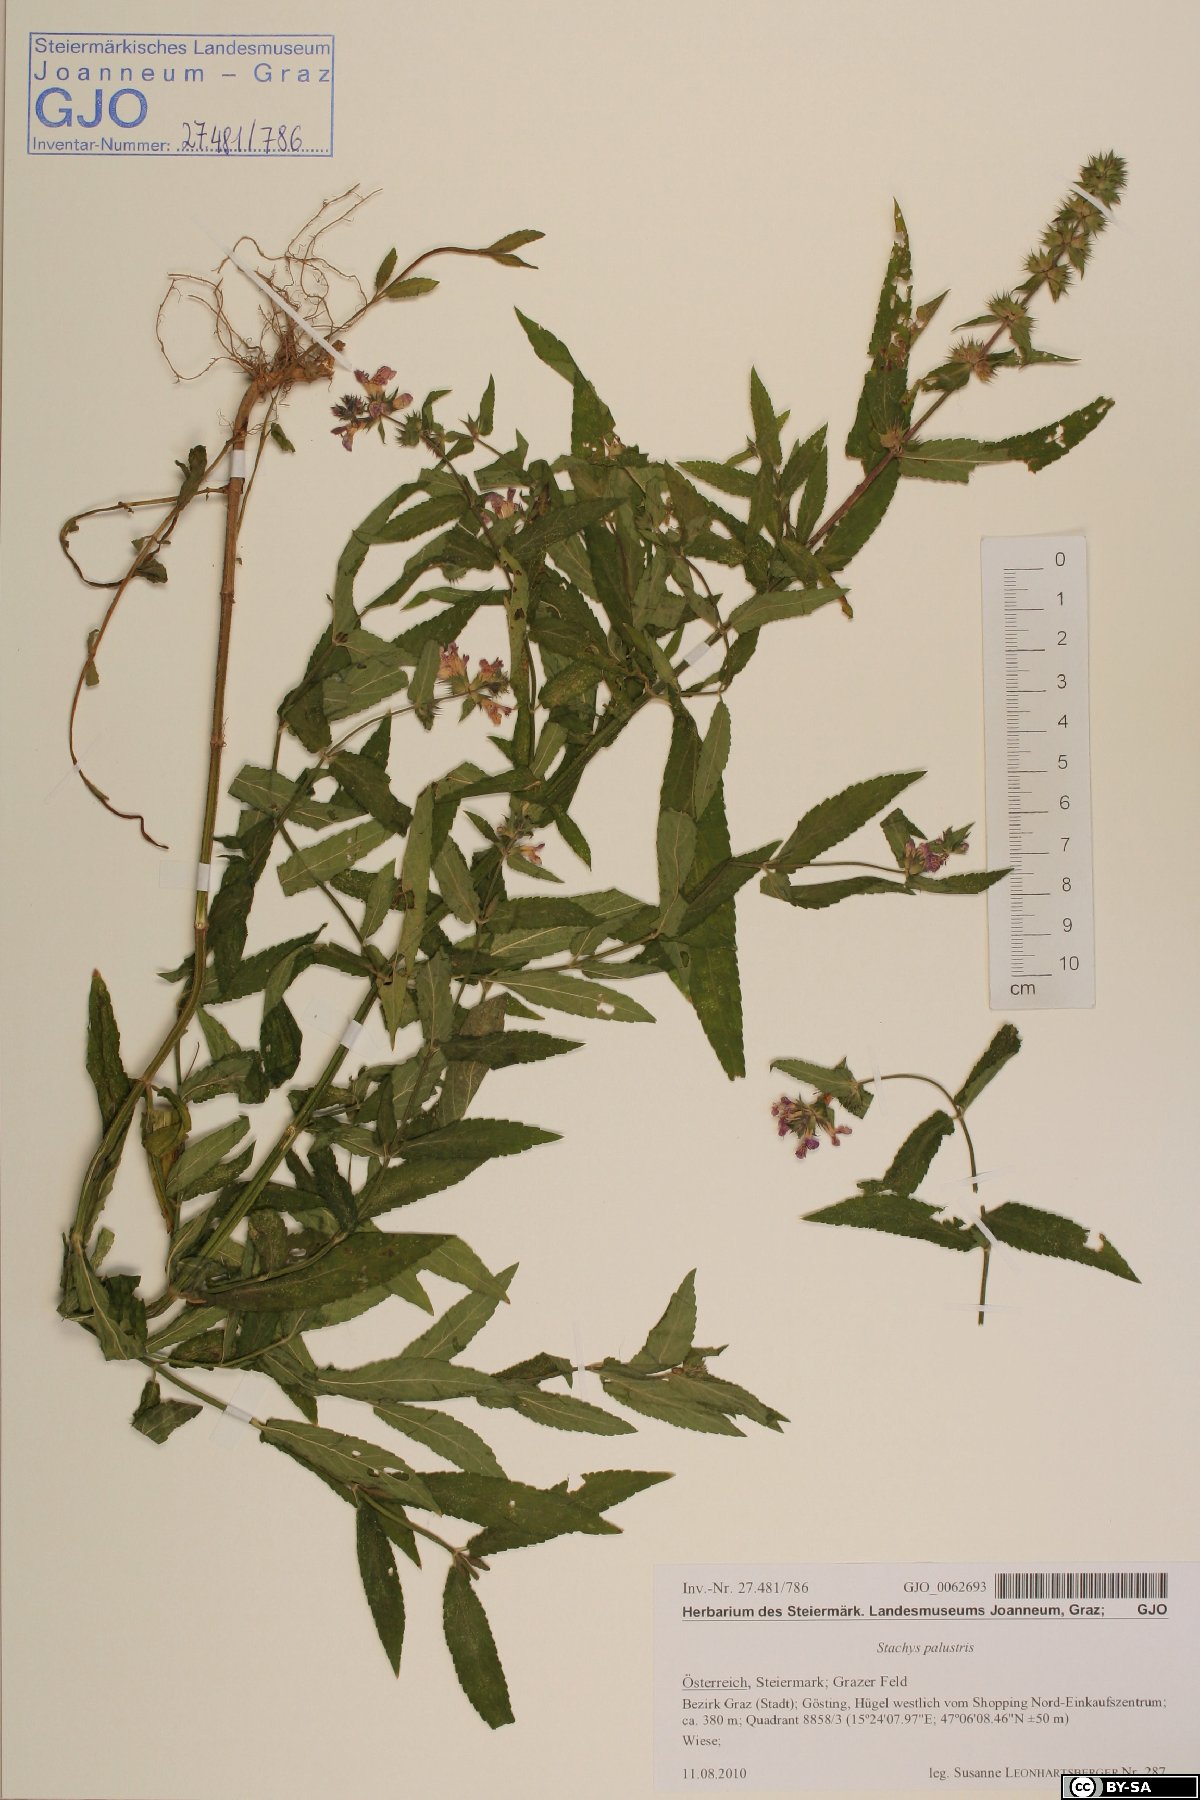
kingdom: Plantae
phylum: Tracheophyta
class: Magnoliopsida
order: Lamiales
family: Lamiaceae
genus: Stachys
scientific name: Stachys palustris
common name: Marsh woundwort
